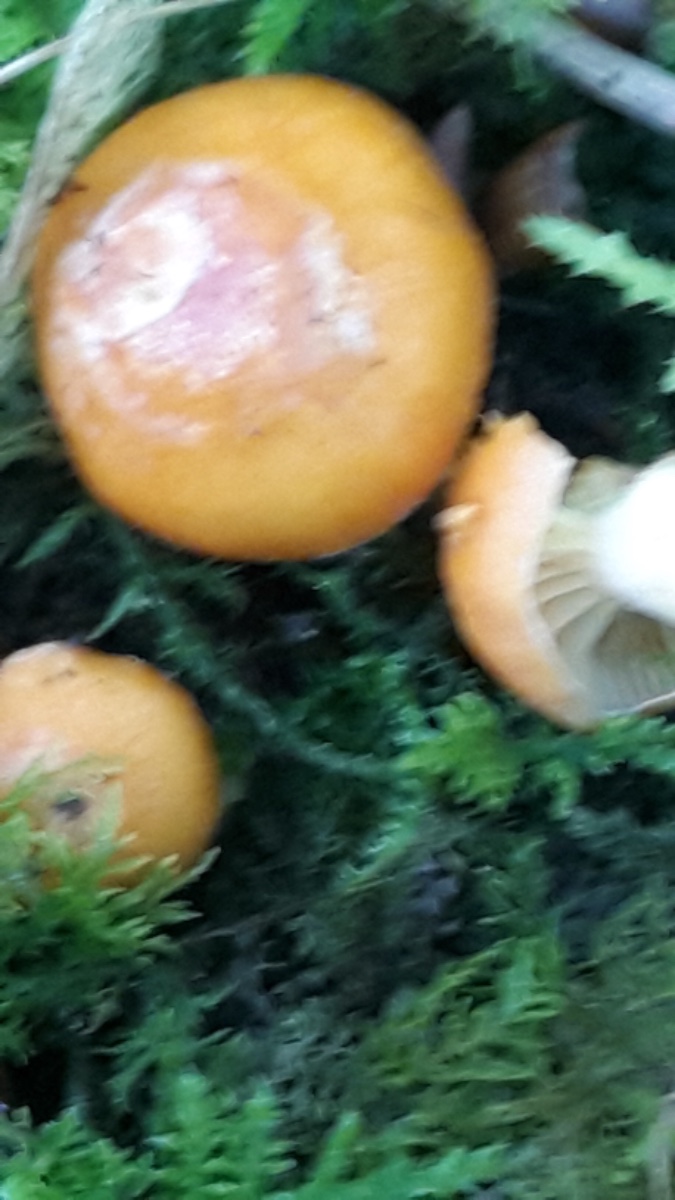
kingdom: Fungi
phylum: Basidiomycota
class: Agaricomycetes
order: Agaricales
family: Hygrophoraceae
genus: Cuphophyllus
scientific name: Cuphophyllus pratensis
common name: eng-vokshat
